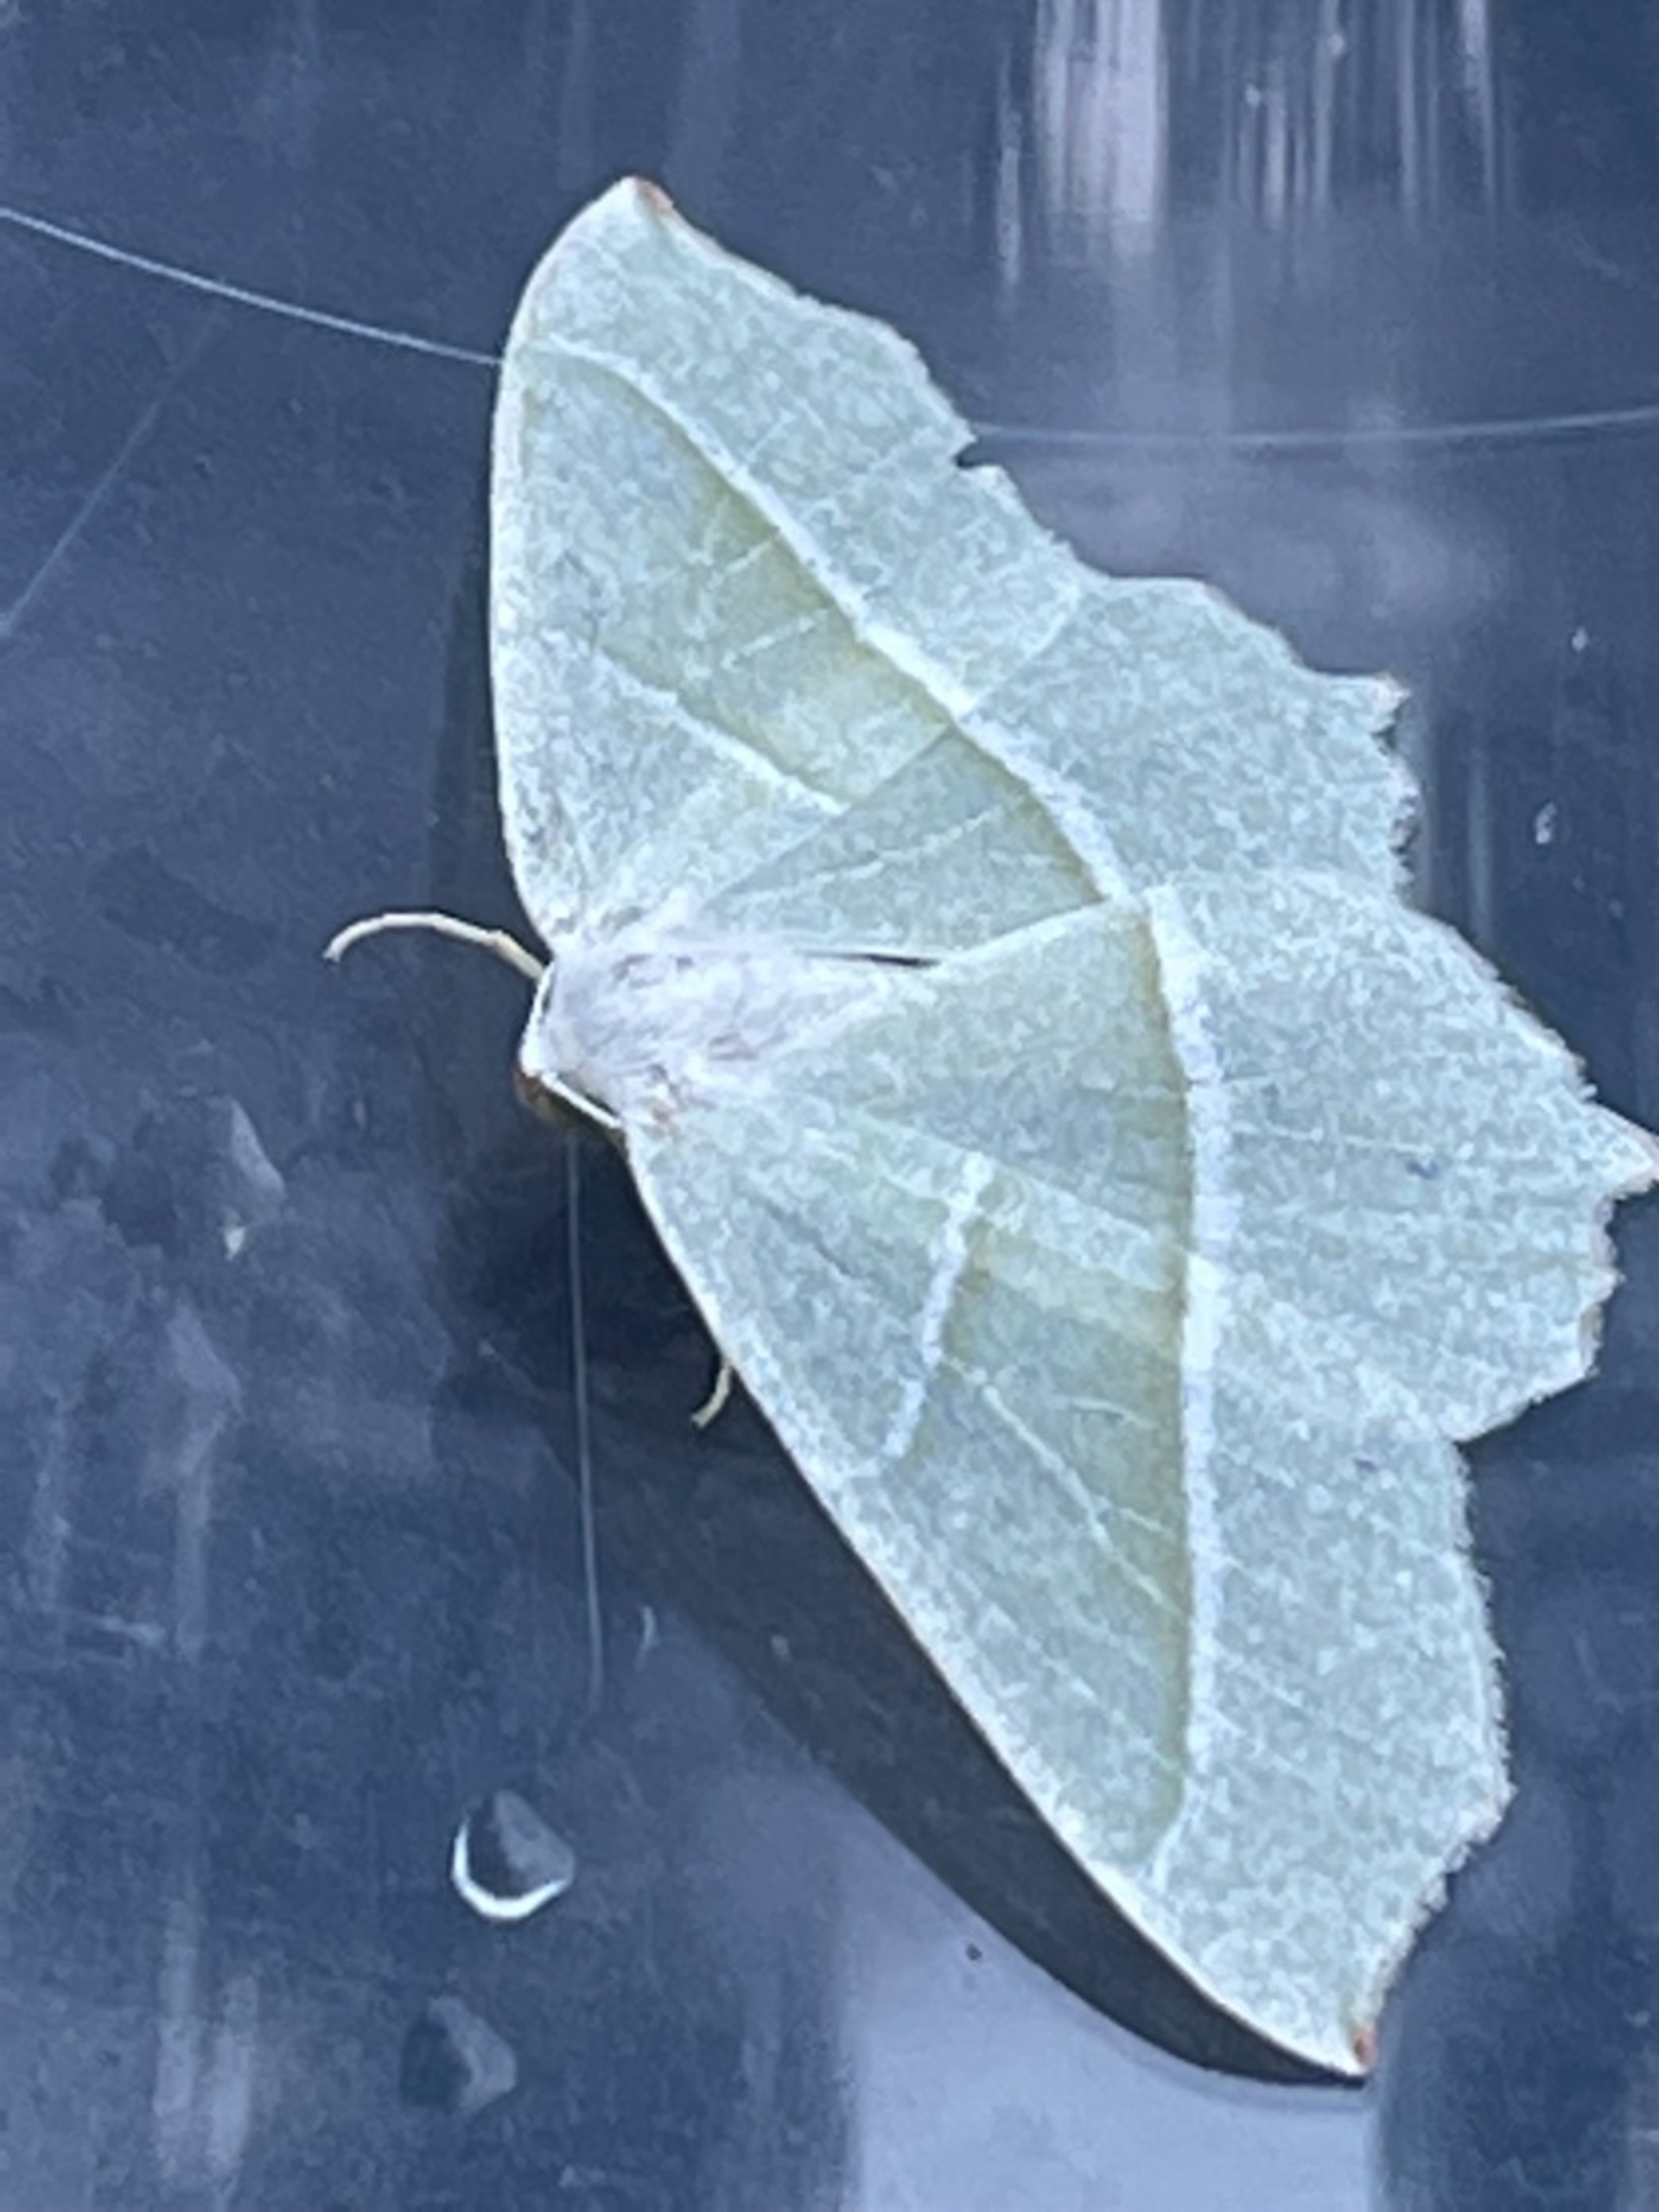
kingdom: Animalia
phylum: Arthropoda
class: Insecta
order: Lepidoptera
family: Geometridae
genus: Campaea
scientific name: Campaea margaritaria
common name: Perlemåler
